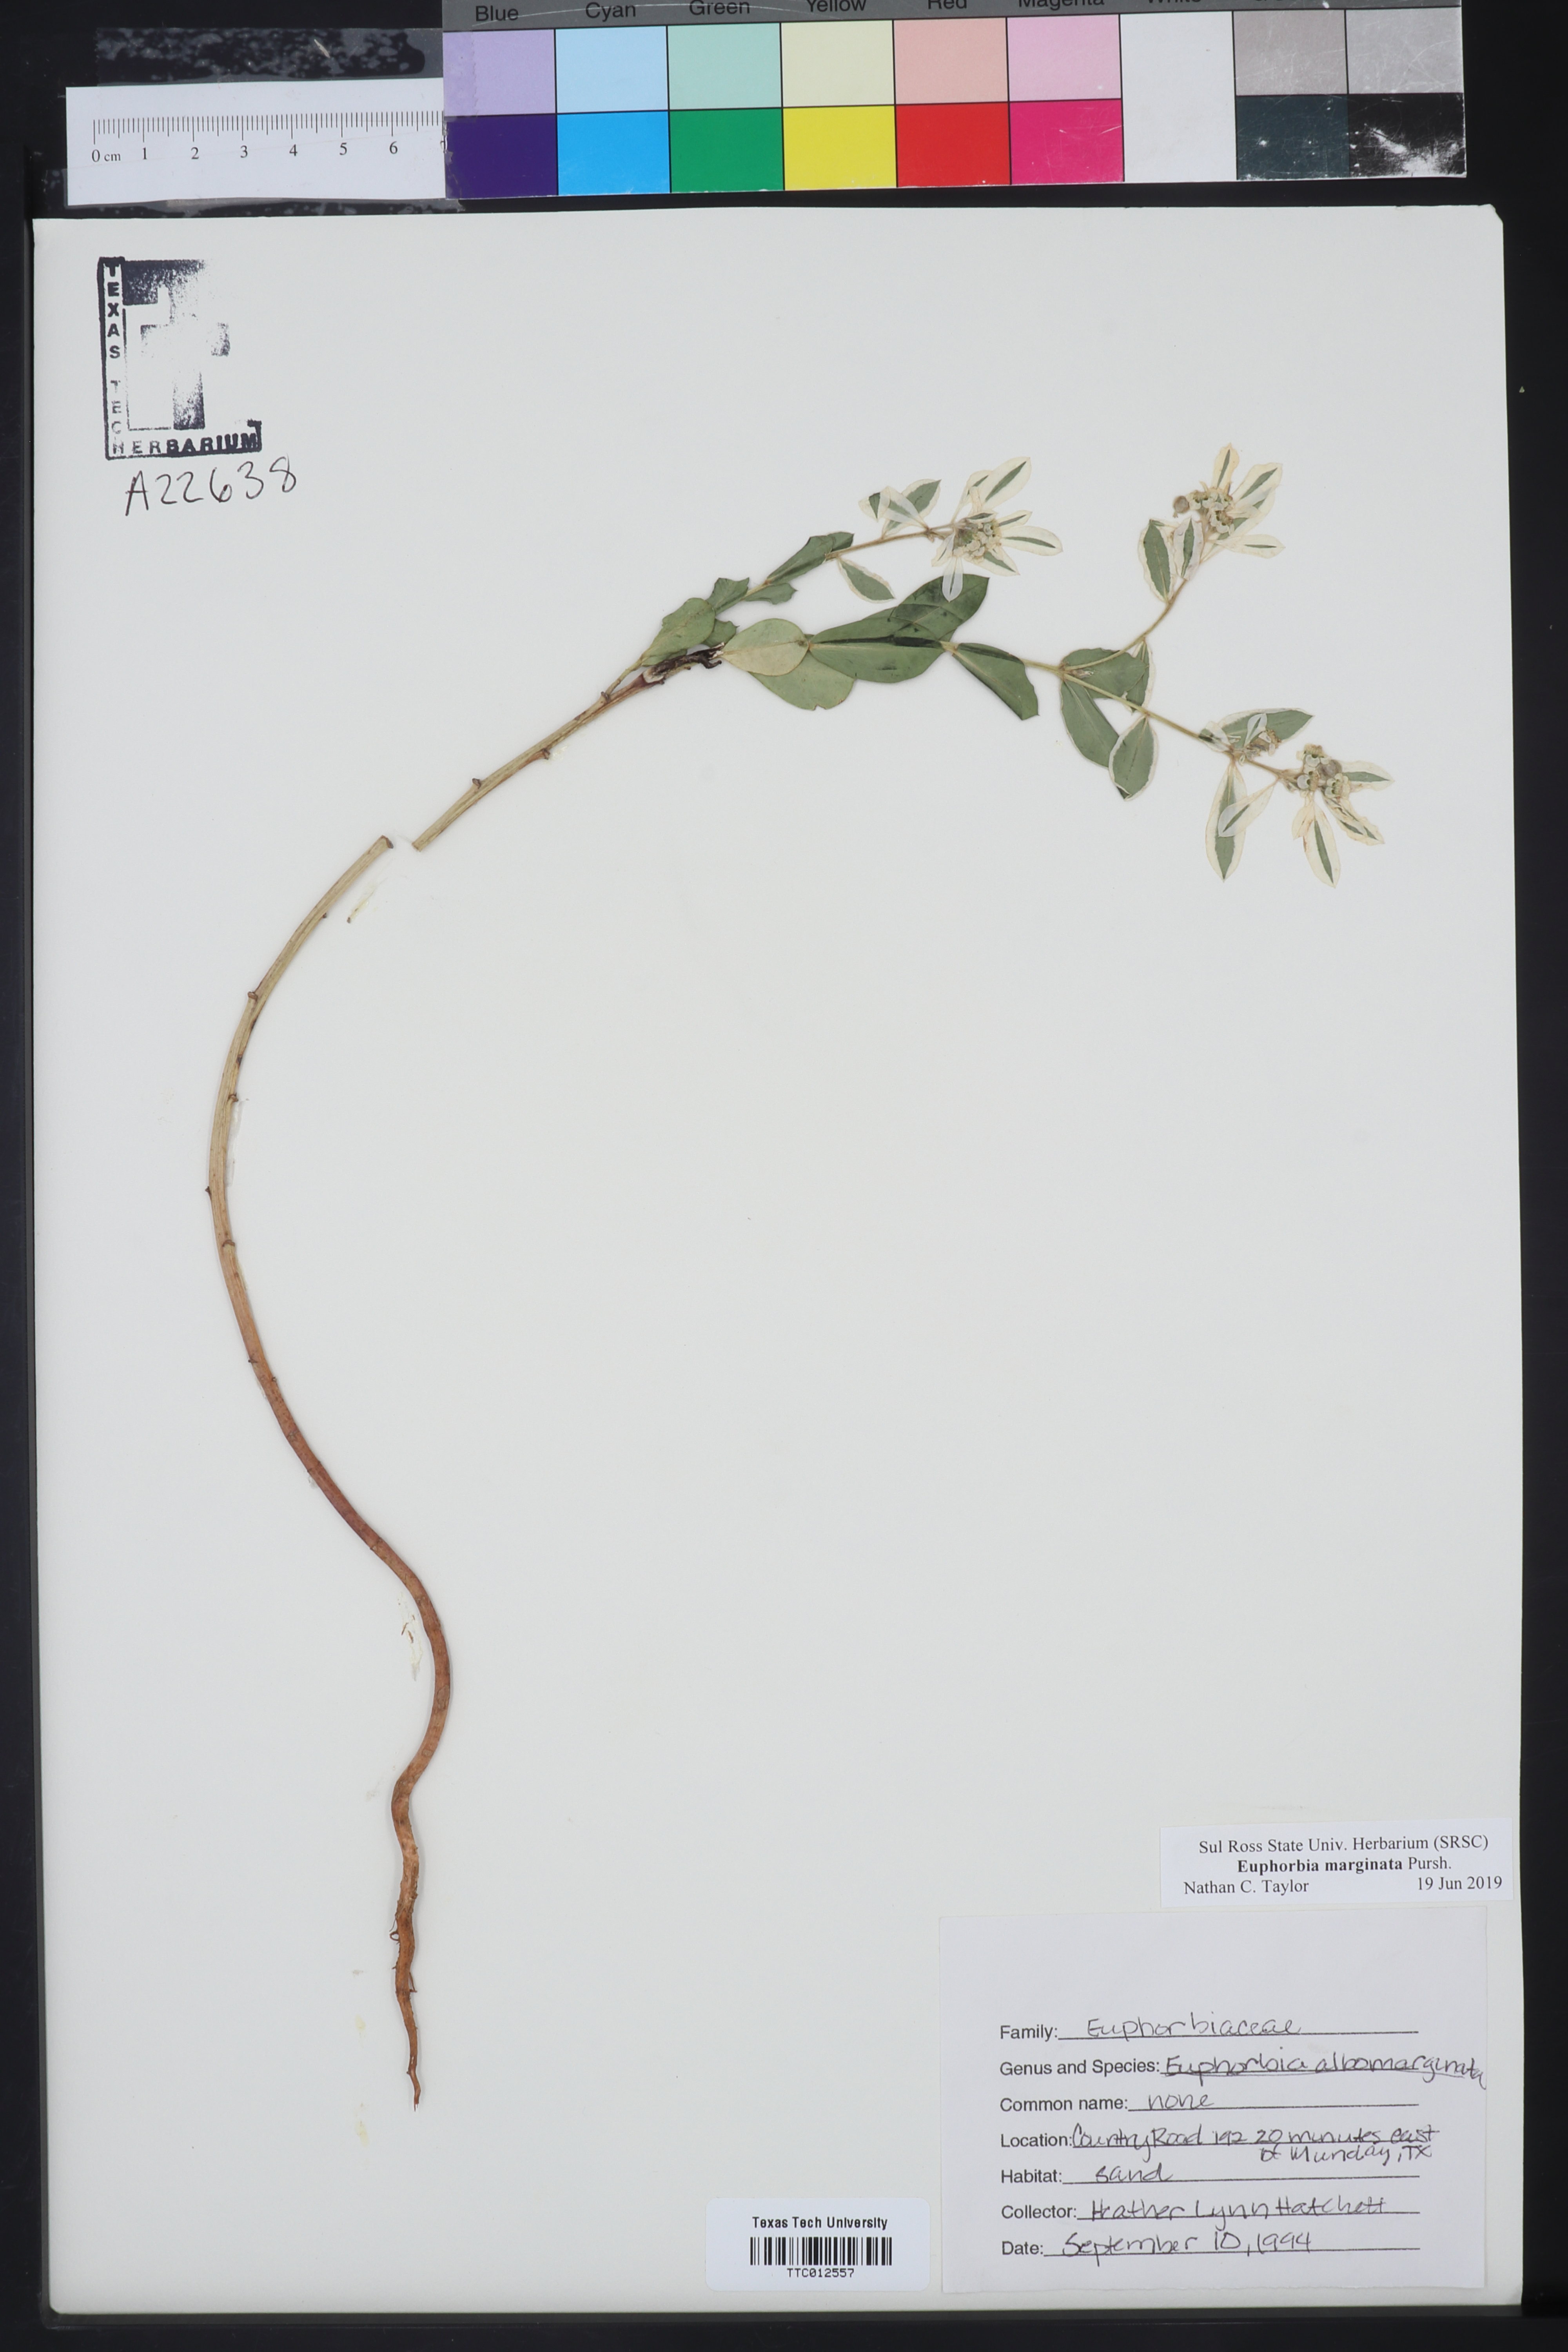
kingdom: Plantae
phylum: Tracheophyta
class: Magnoliopsida
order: Malpighiales
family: Euphorbiaceae
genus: Euphorbia
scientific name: Euphorbia marginata
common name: Ghostweed
